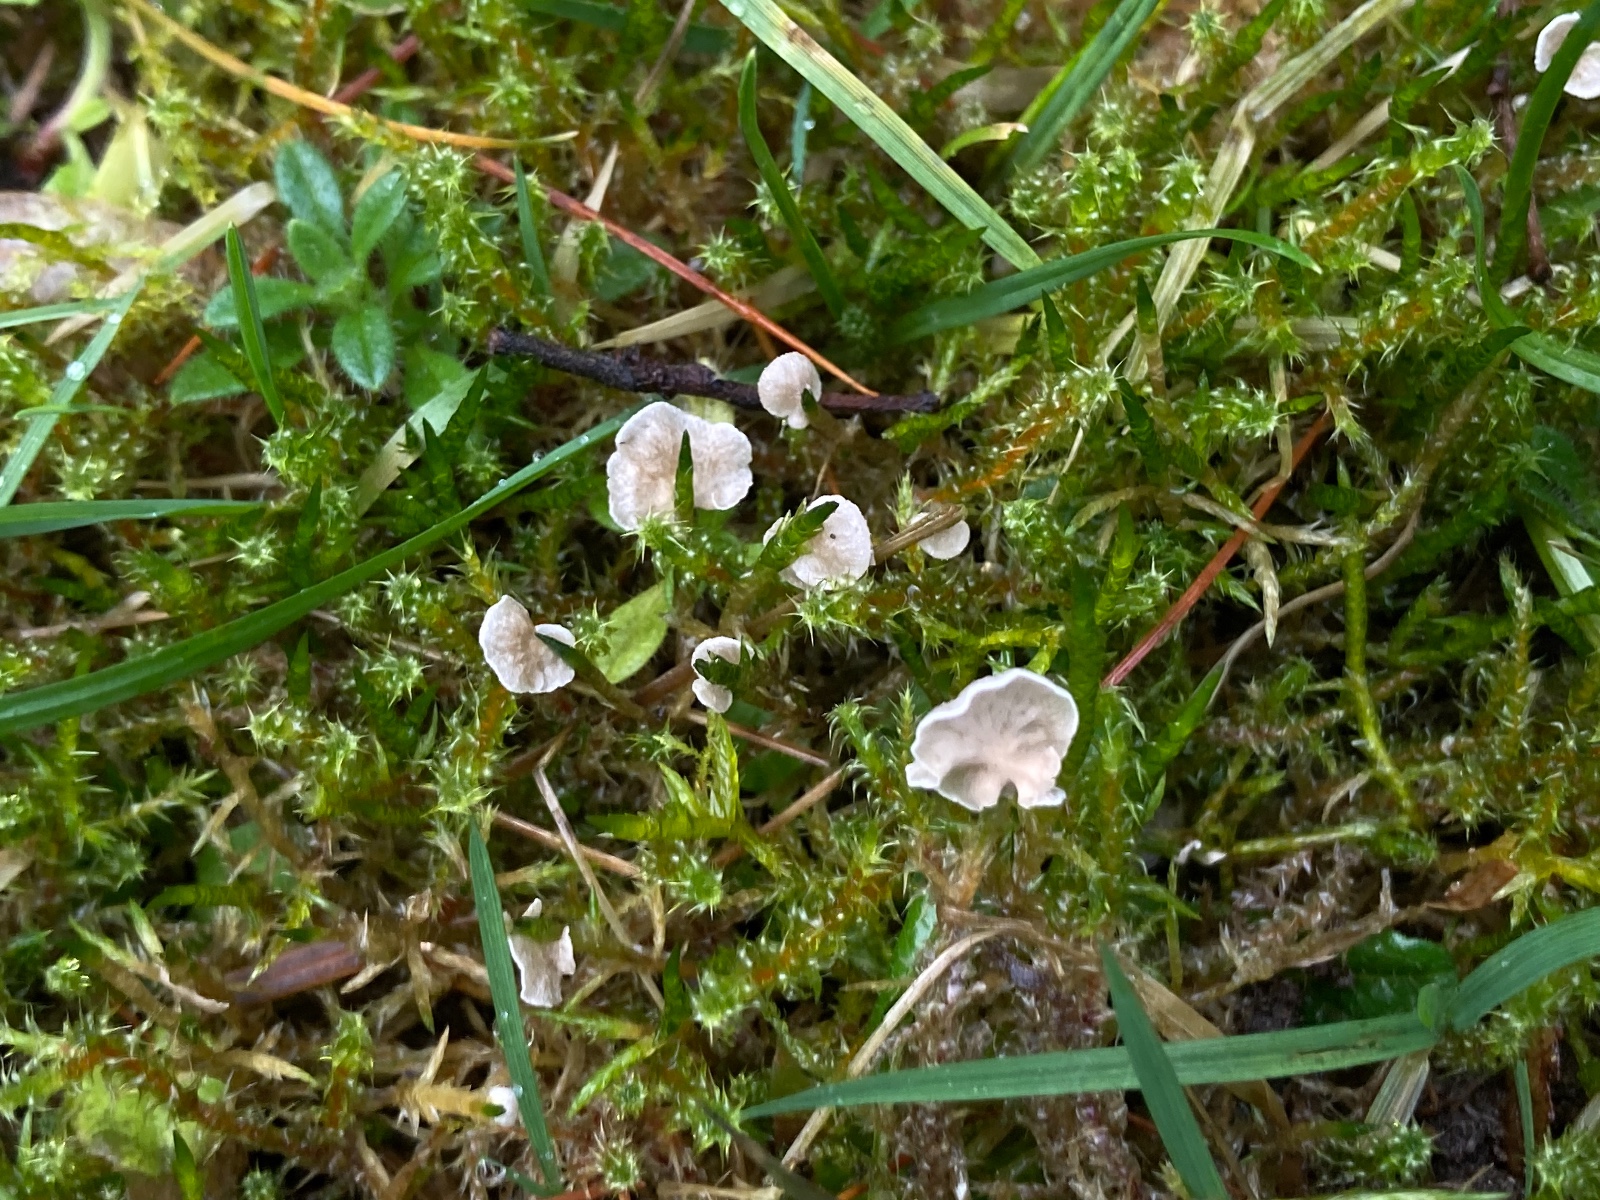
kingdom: Fungi
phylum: Basidiomycota
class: Agaricomycetes
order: Agaricales
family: Hygrophoraceae
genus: Arrhenia
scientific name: Arrhenia retiruga
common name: lille fontænehat
